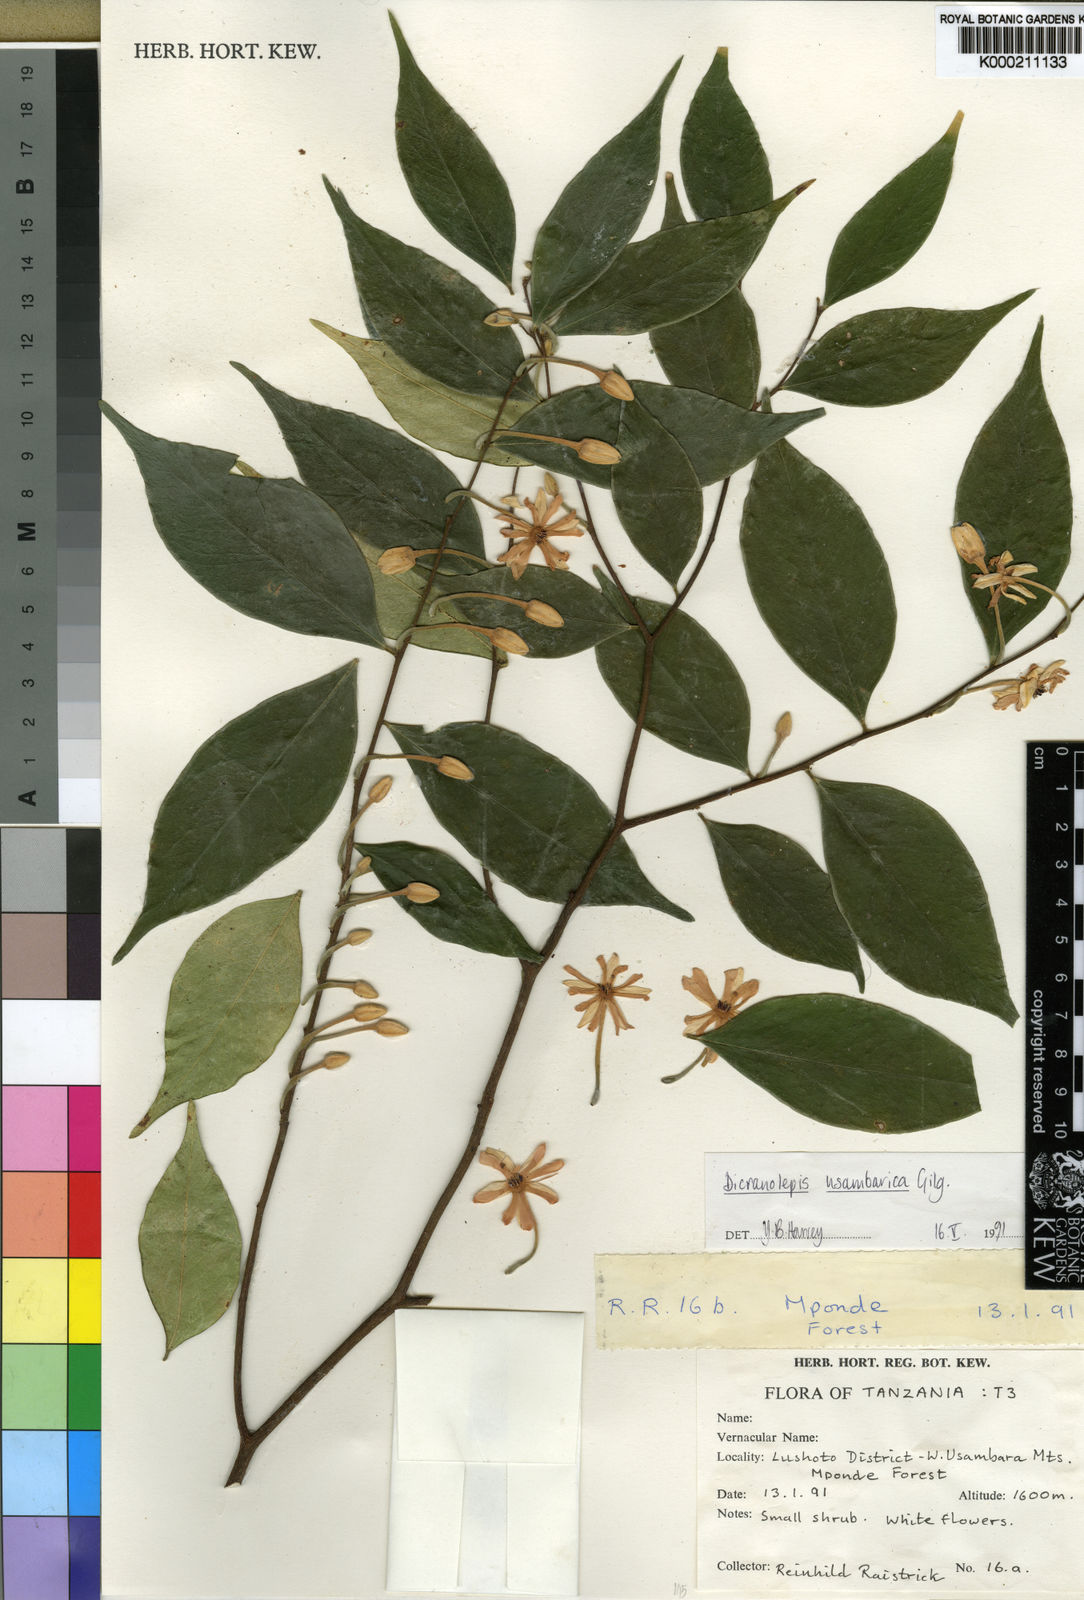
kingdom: Plantae
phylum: Tracheophyta
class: Magnoliopsida
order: Malvales
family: Thymelaeaceae
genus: Dicranolepis
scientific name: Dicranolepis usambarica
